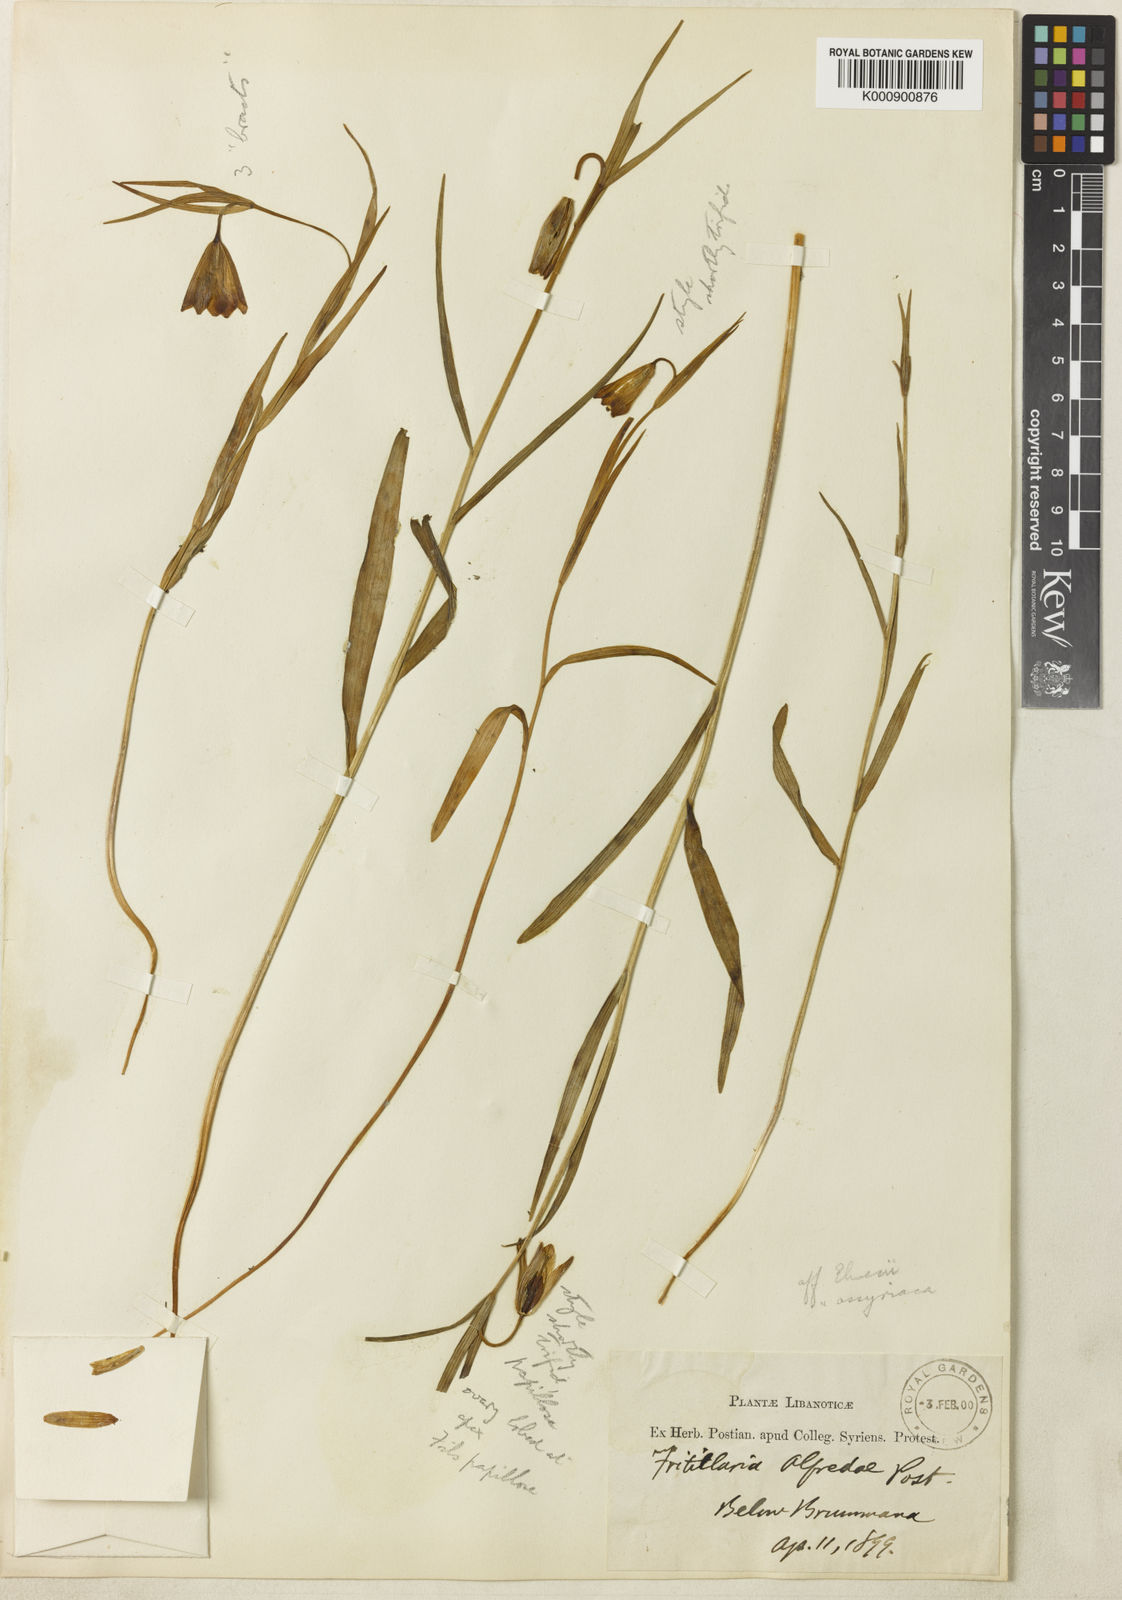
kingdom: Plantae
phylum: Tracheophyta
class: Liliopsida
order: Liliales
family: Liliaceae
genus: Fritillaria
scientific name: Fritillaria alfredae
